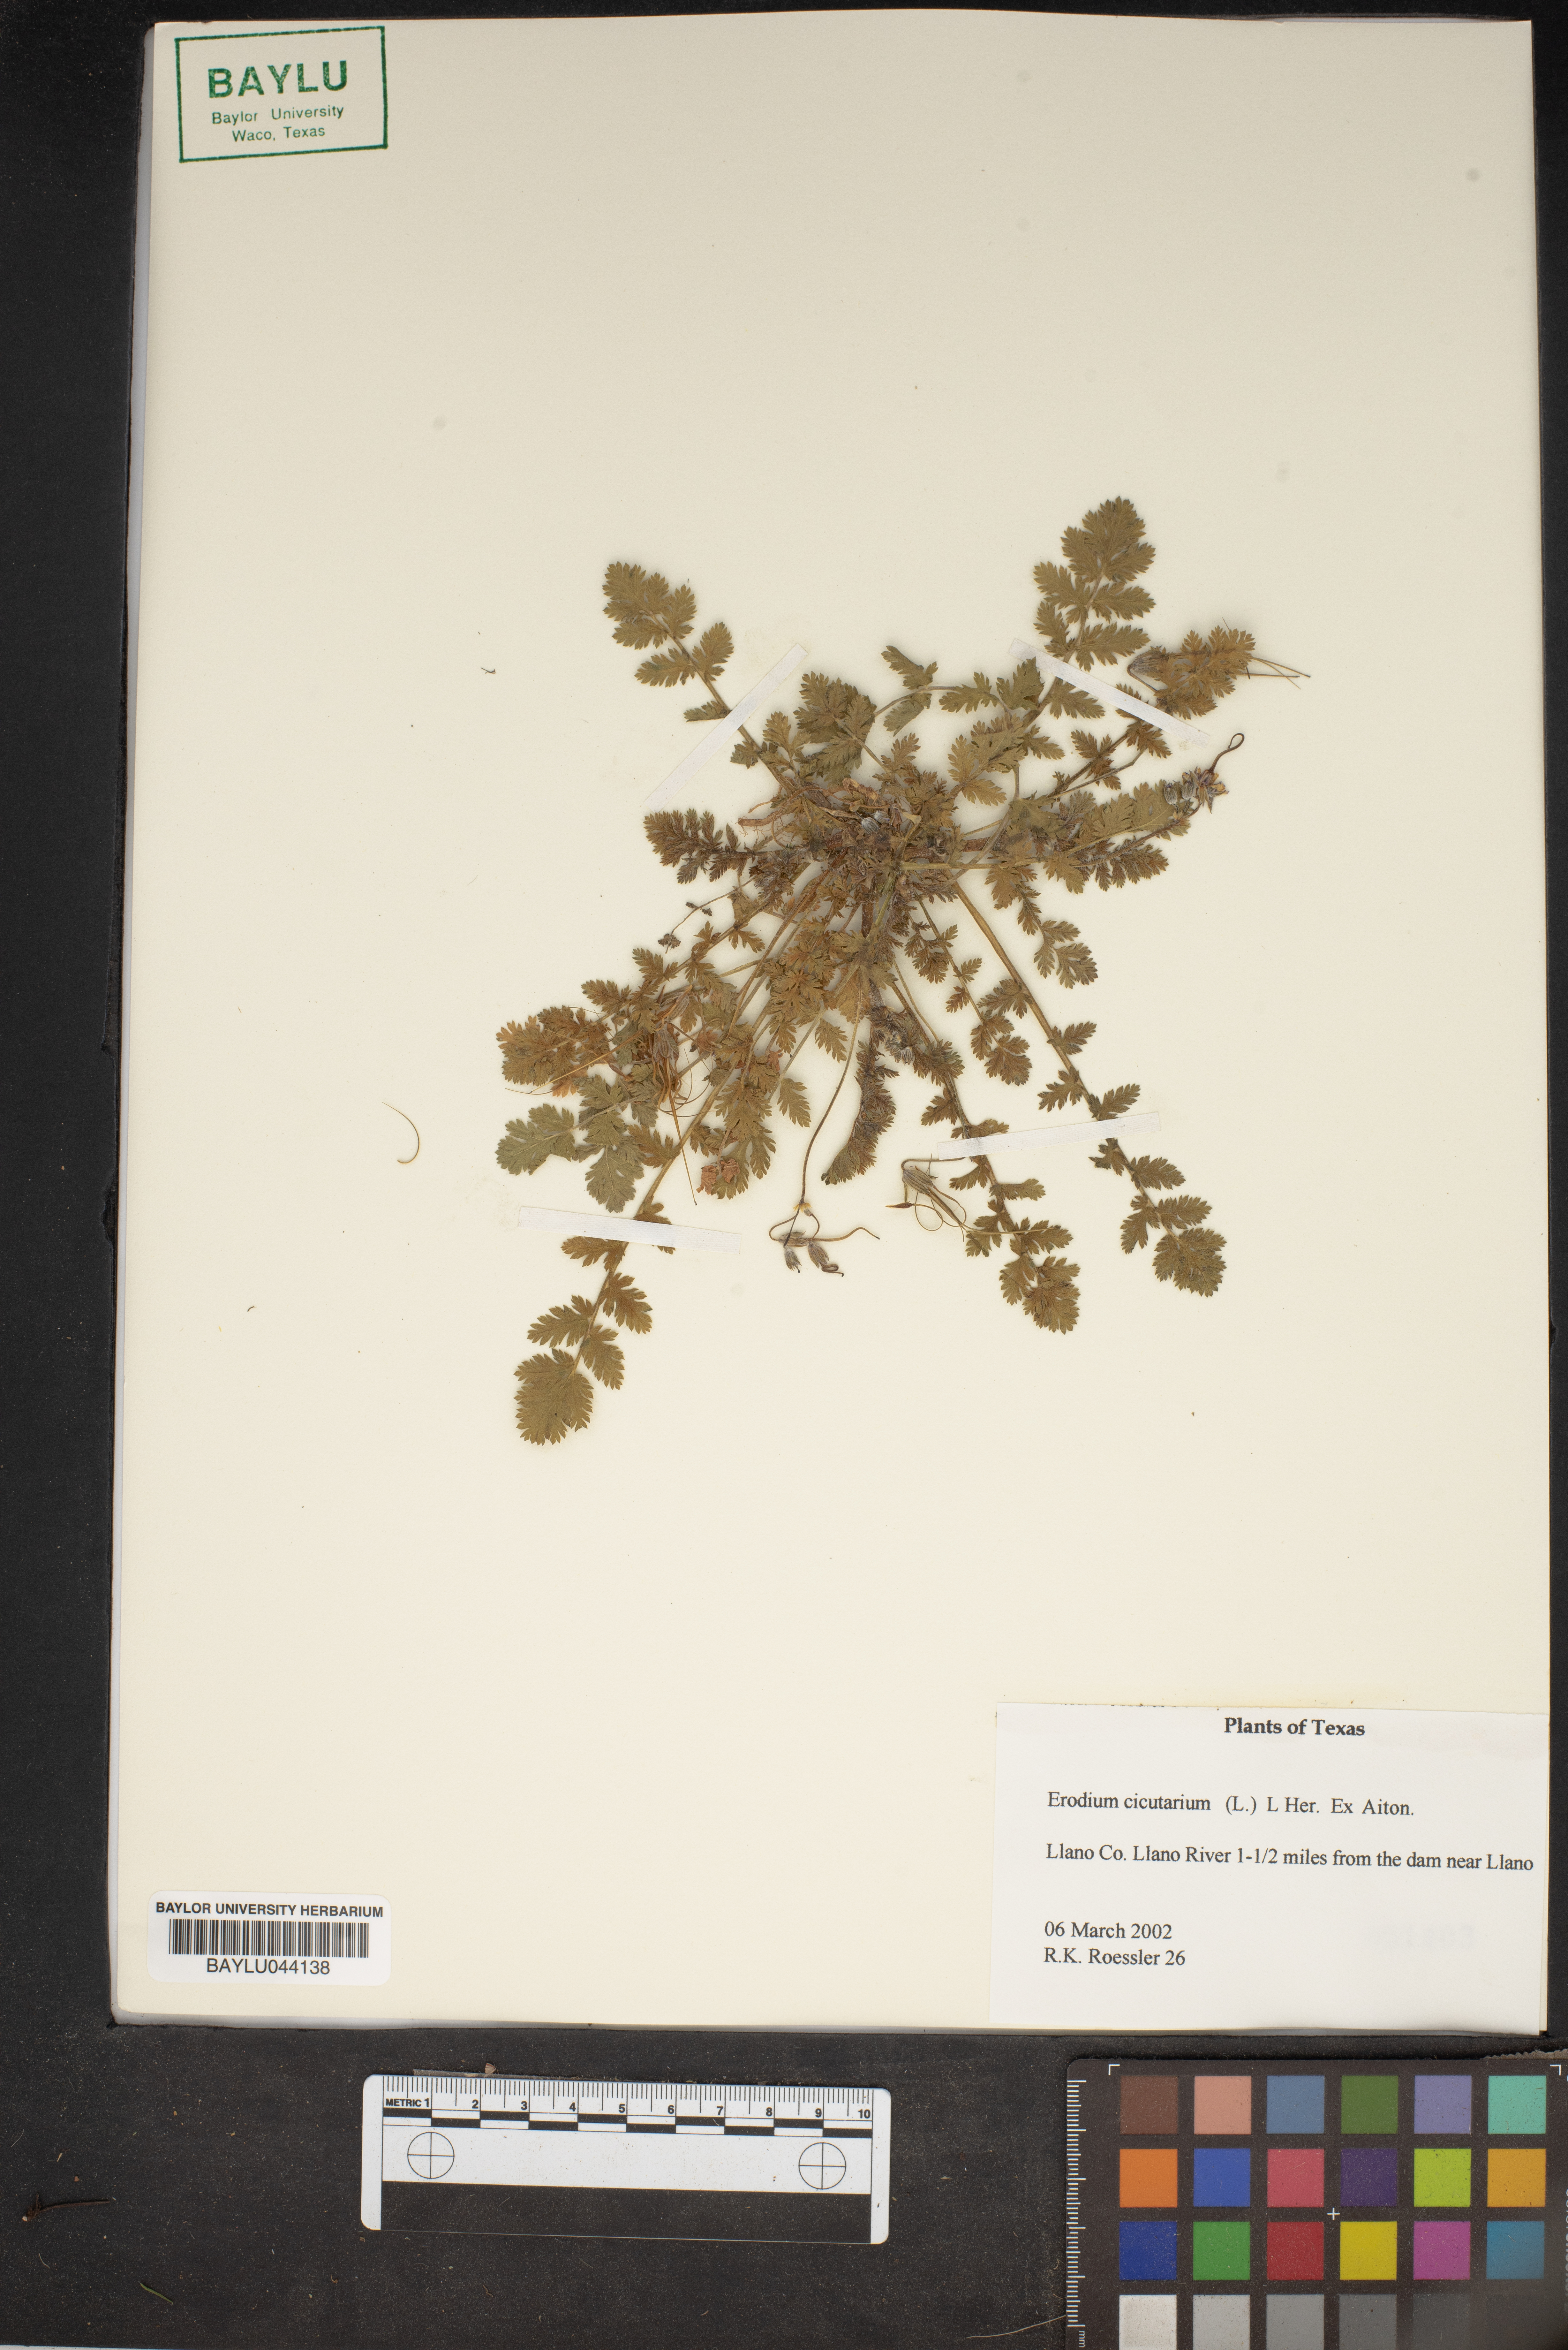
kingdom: Plantae
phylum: Tracheophyta
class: Magnoliopsida
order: Geraniales
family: Geraniaceae
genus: Erodium
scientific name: Erodium cicutarium
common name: Common stork's-bill
